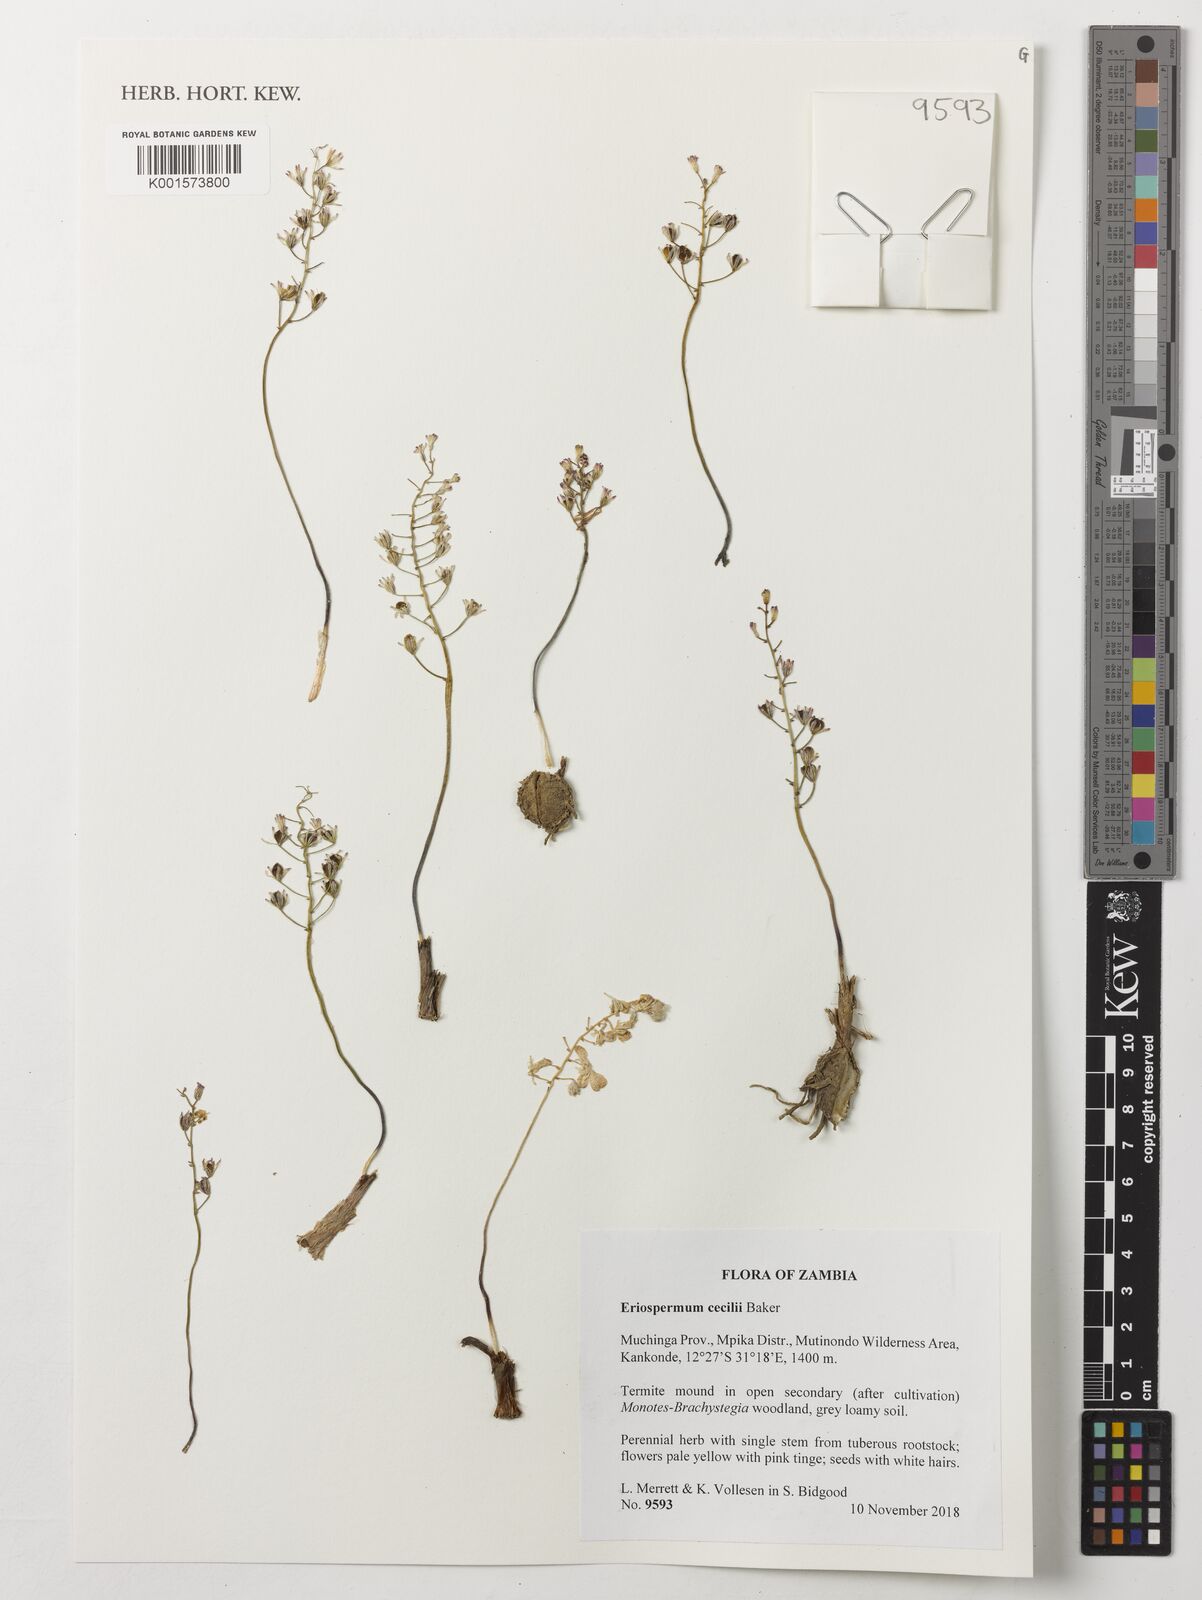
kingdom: Plantae
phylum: Tracheophyta
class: Liliopsida
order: Asparagales
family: Asparagaceae
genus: Eriospermum
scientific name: Eriospermum cecilii
